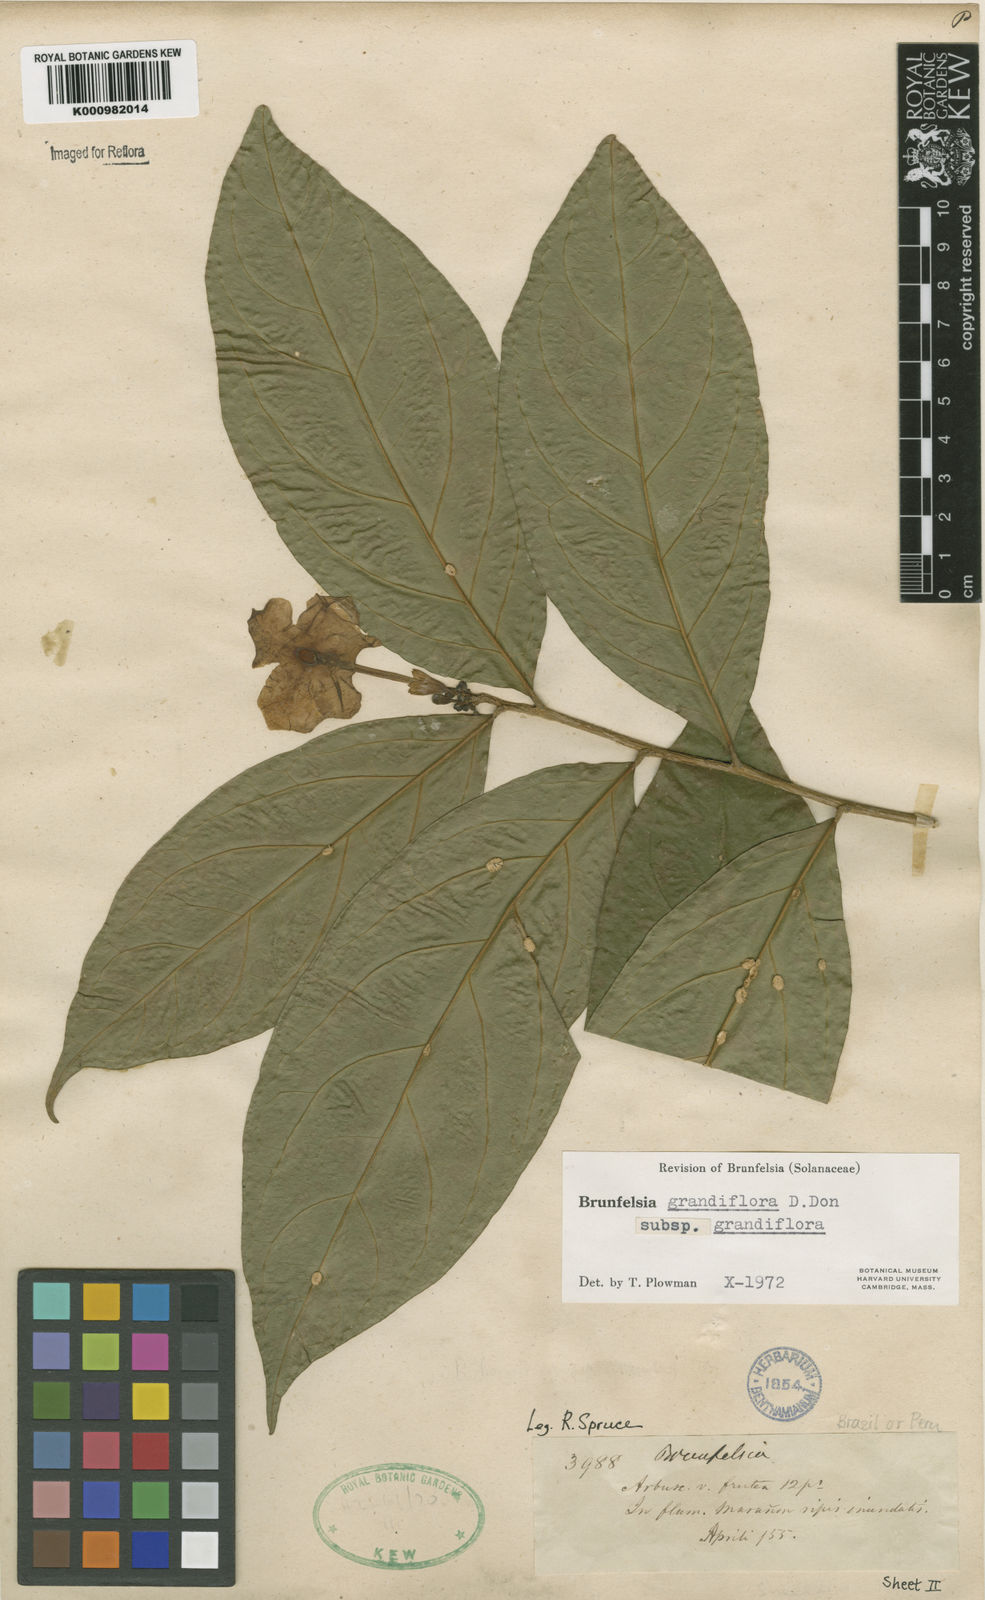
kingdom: Plantae
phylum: Tracheophyta
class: Magnoliopsida
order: Solanales
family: Solanaceae
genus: Brunfelsia
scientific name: Brunfelsia grandiflora
